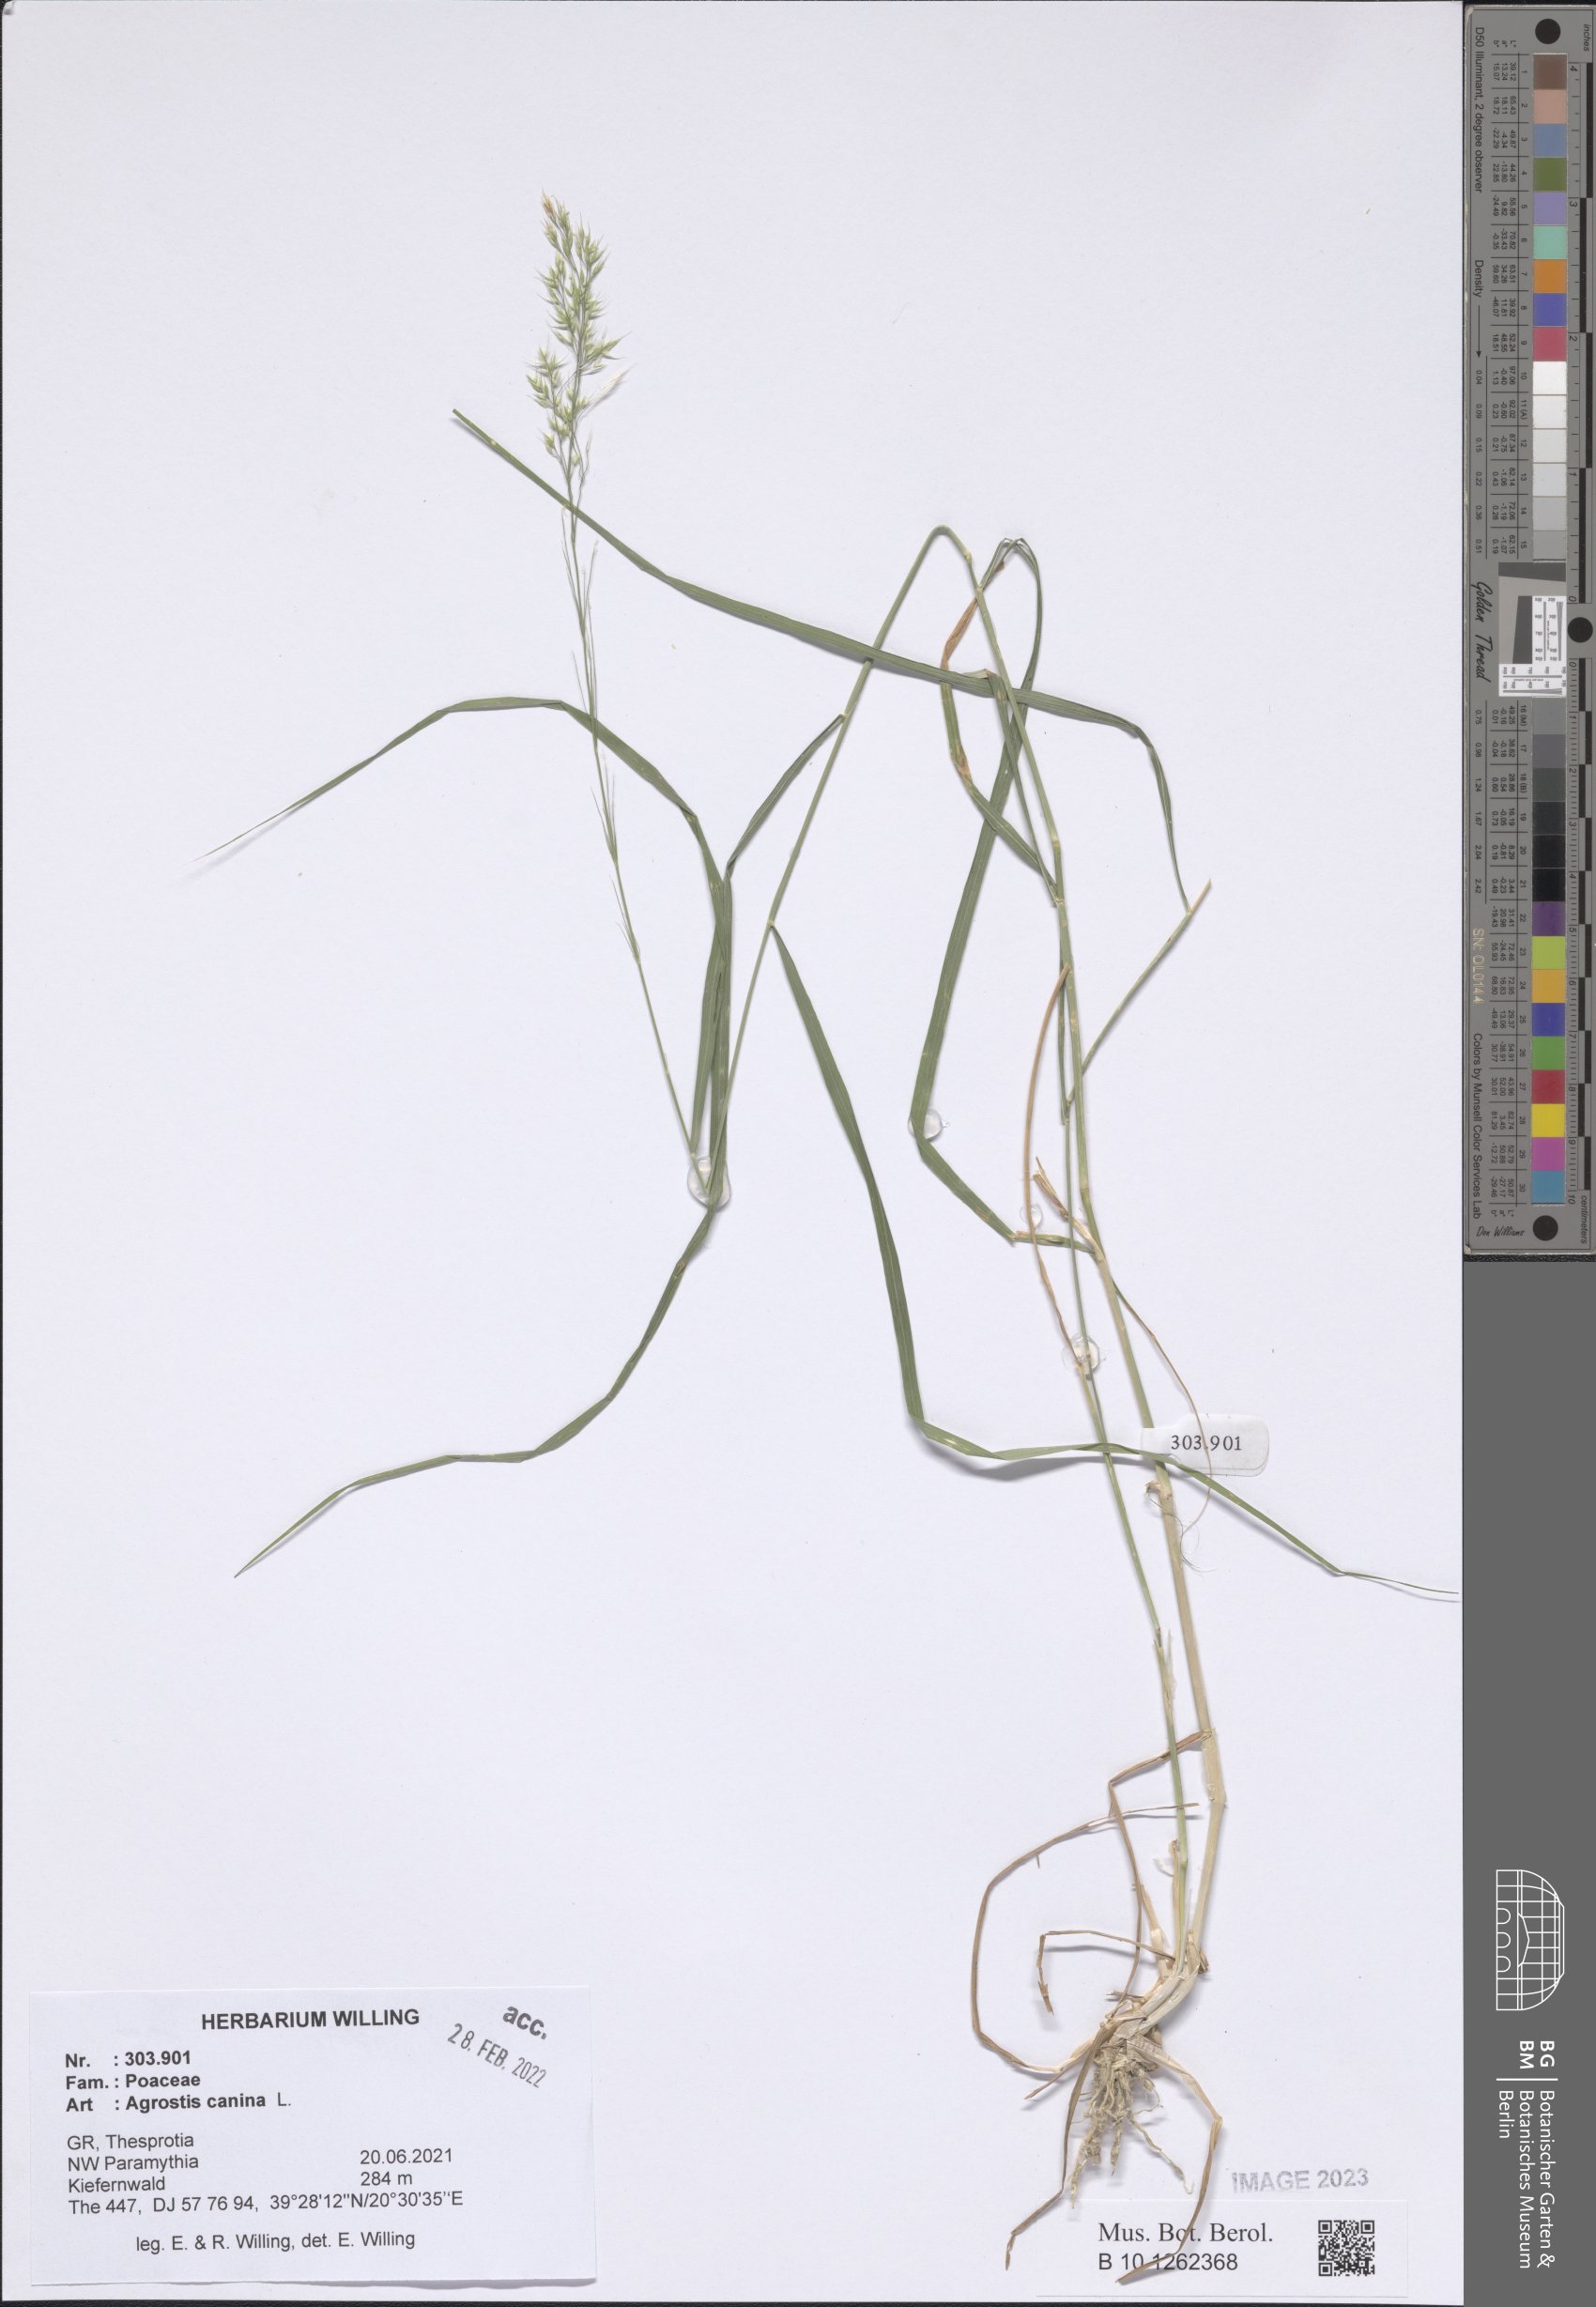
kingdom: Plantae
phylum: Tracheophyta
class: Liliopsida
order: Poales
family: Poaceae
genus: Agrostis
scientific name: Agrostis canina
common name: Velvet bent
